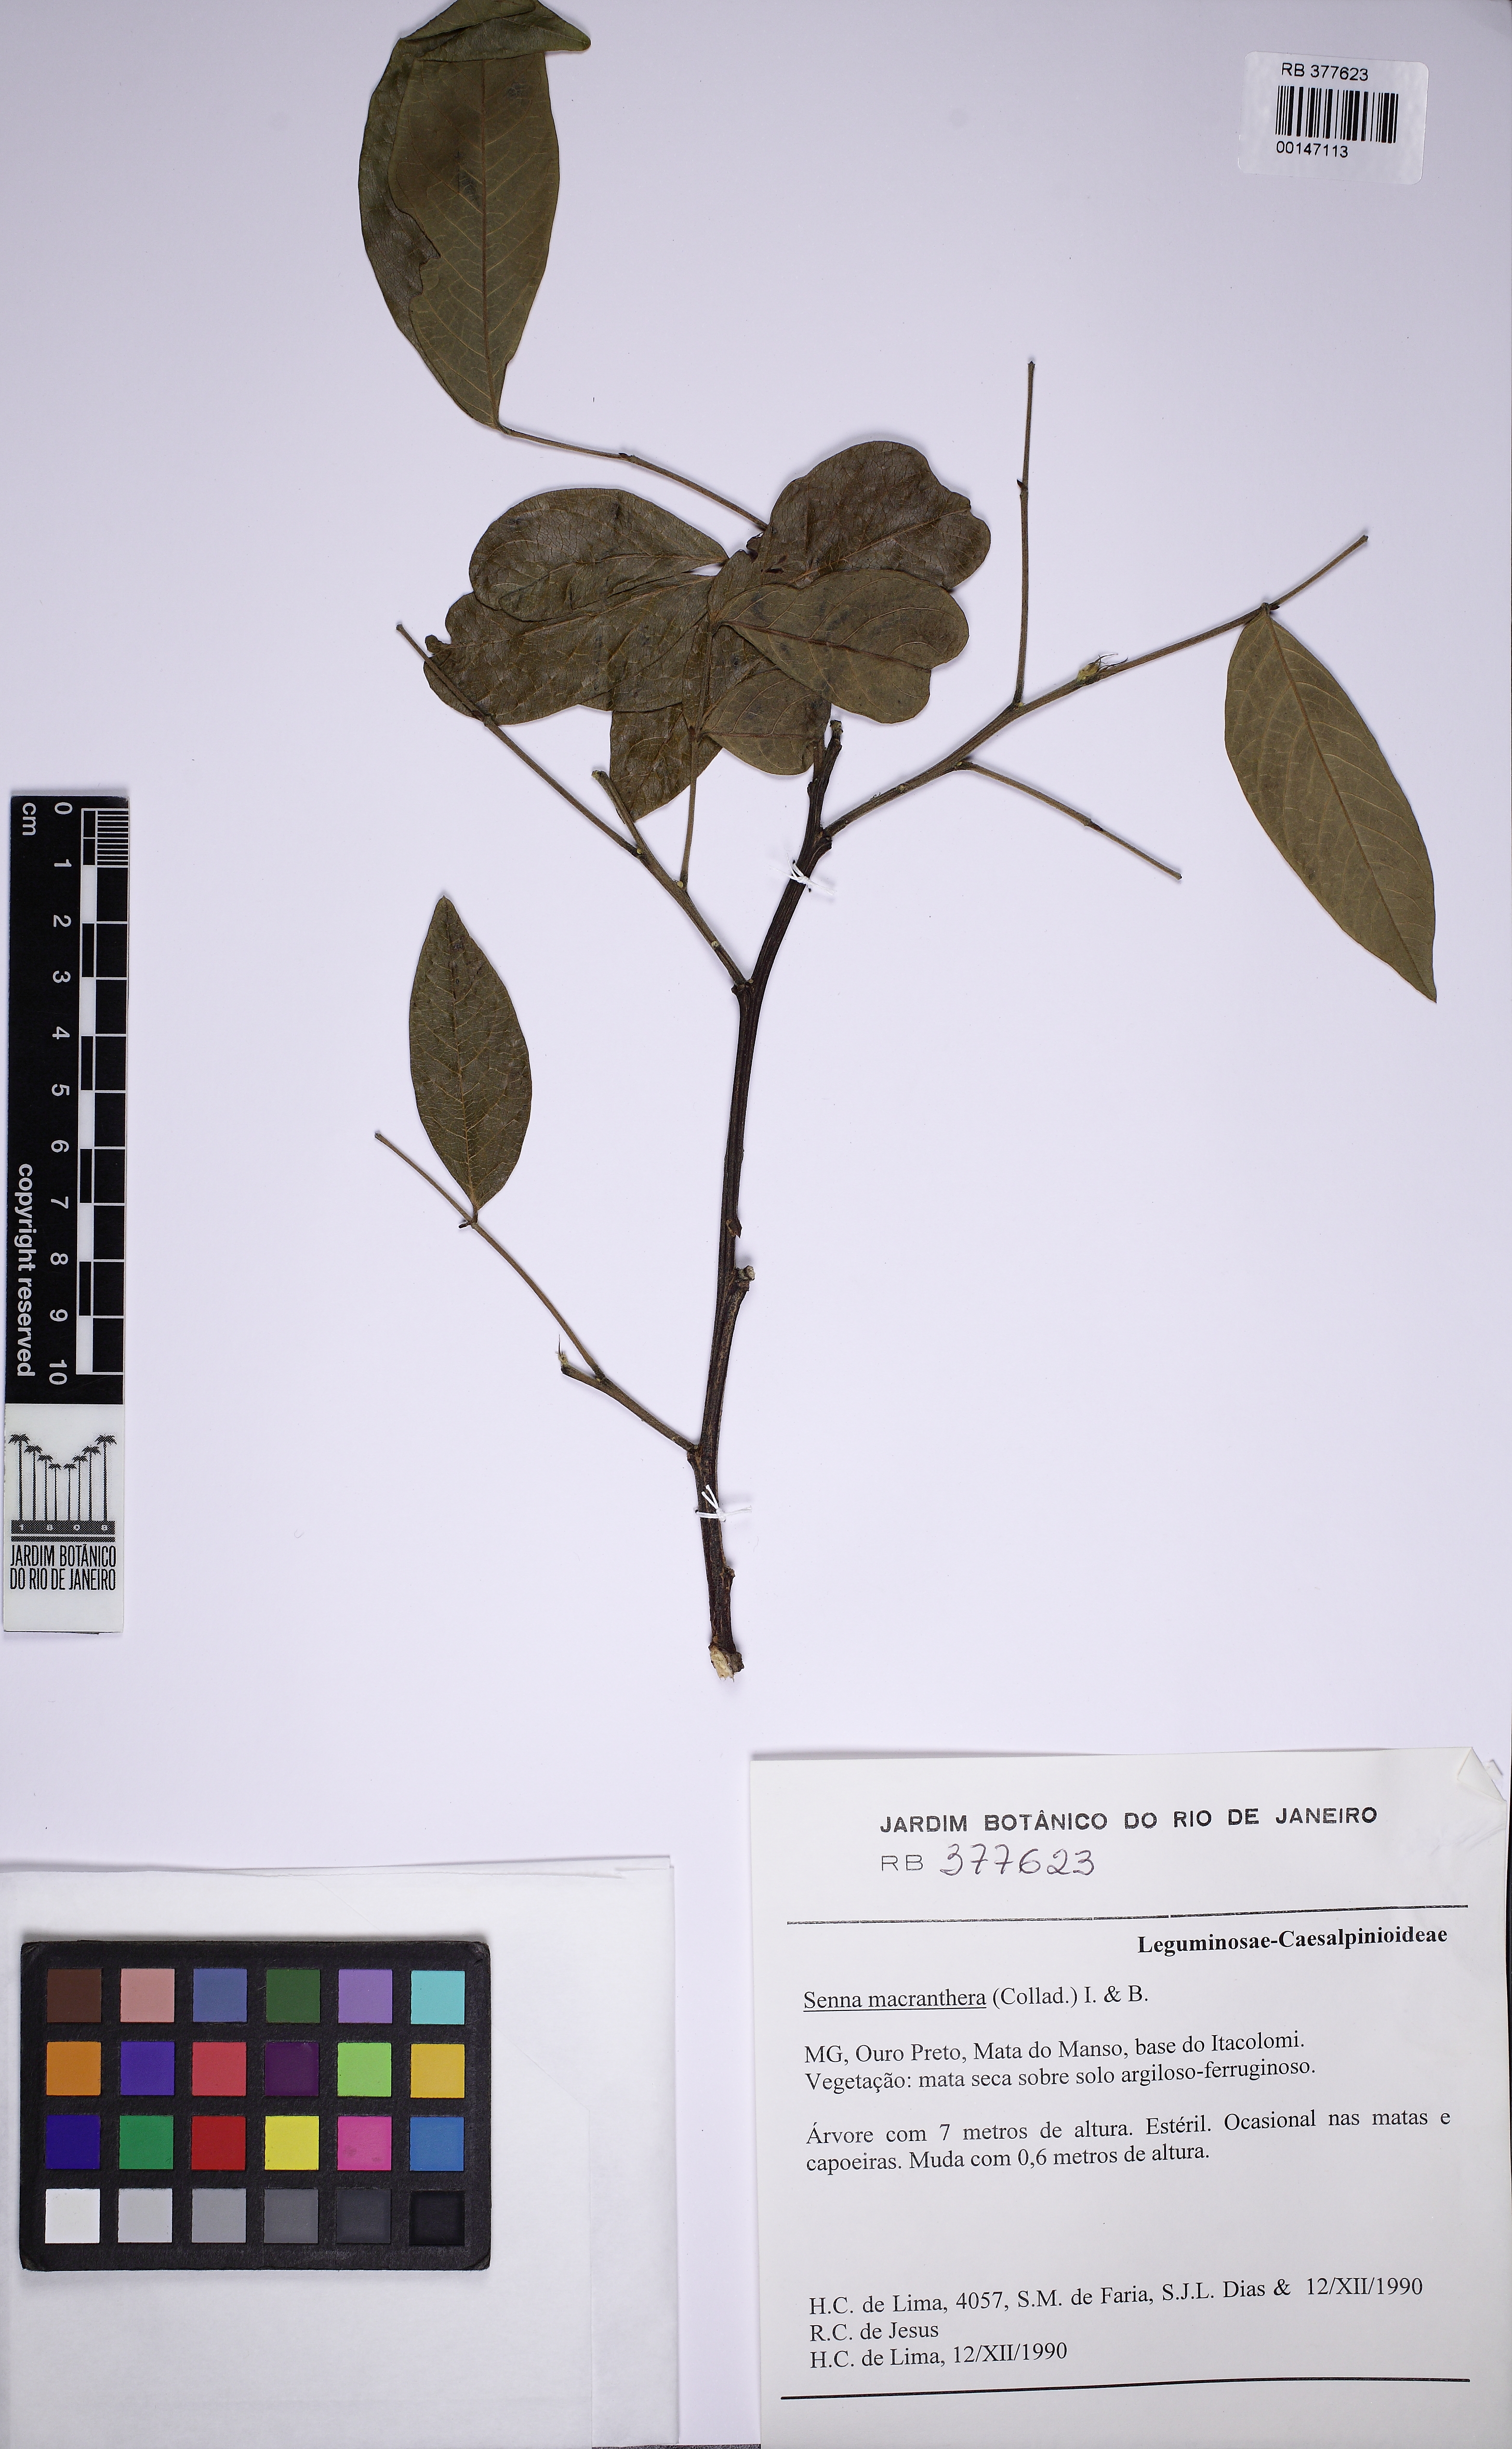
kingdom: Plantae
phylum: Tracheophyta
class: Magnoliopsida
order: Fabales
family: Fabaceae
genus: Senna
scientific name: Senna macranthera
